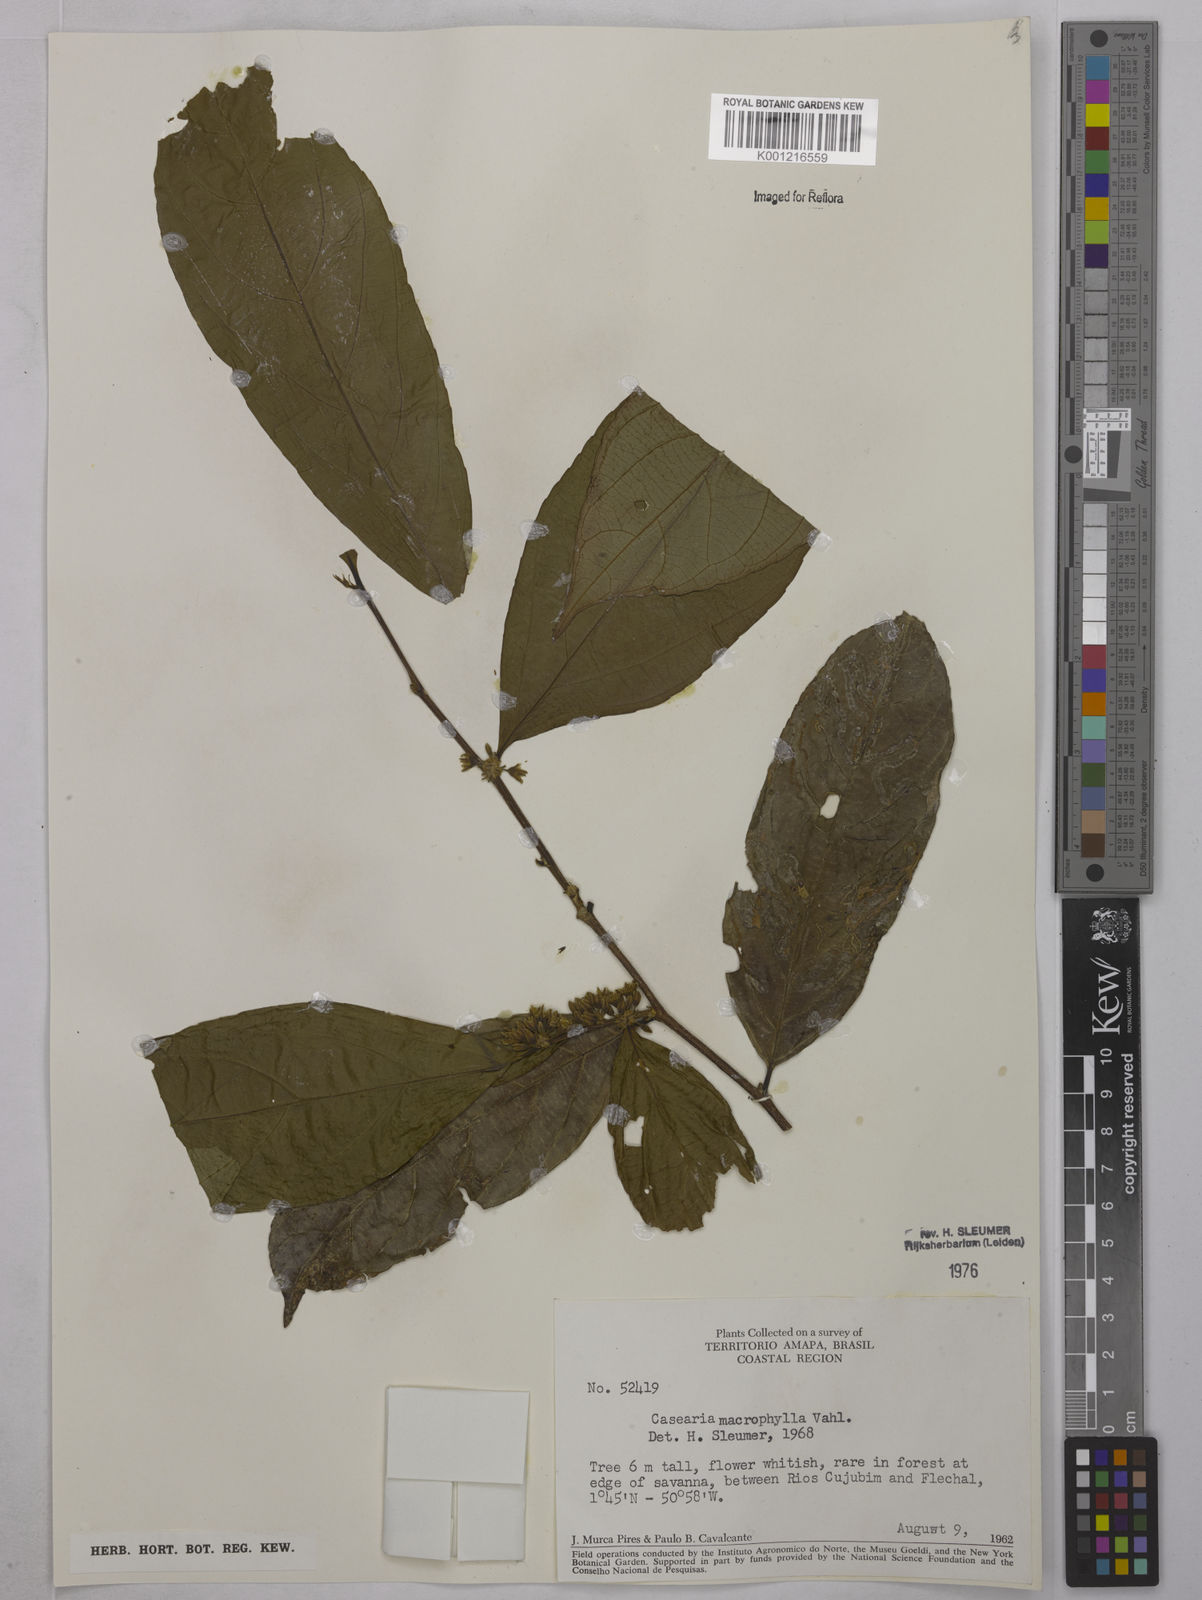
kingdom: Plantae
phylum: Tracheophyta
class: Magnoliopsida
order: Malpighiales
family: Salicaceae
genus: Casearia
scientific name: Casearia pitumba
